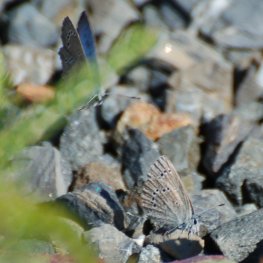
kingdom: Animalia
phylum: Arthropoda
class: Insecta
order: Lepidoptera
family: Lycaenidae
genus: Glaucopsyche
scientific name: Glaucopsyche lygdamus
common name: Silvery Blue
